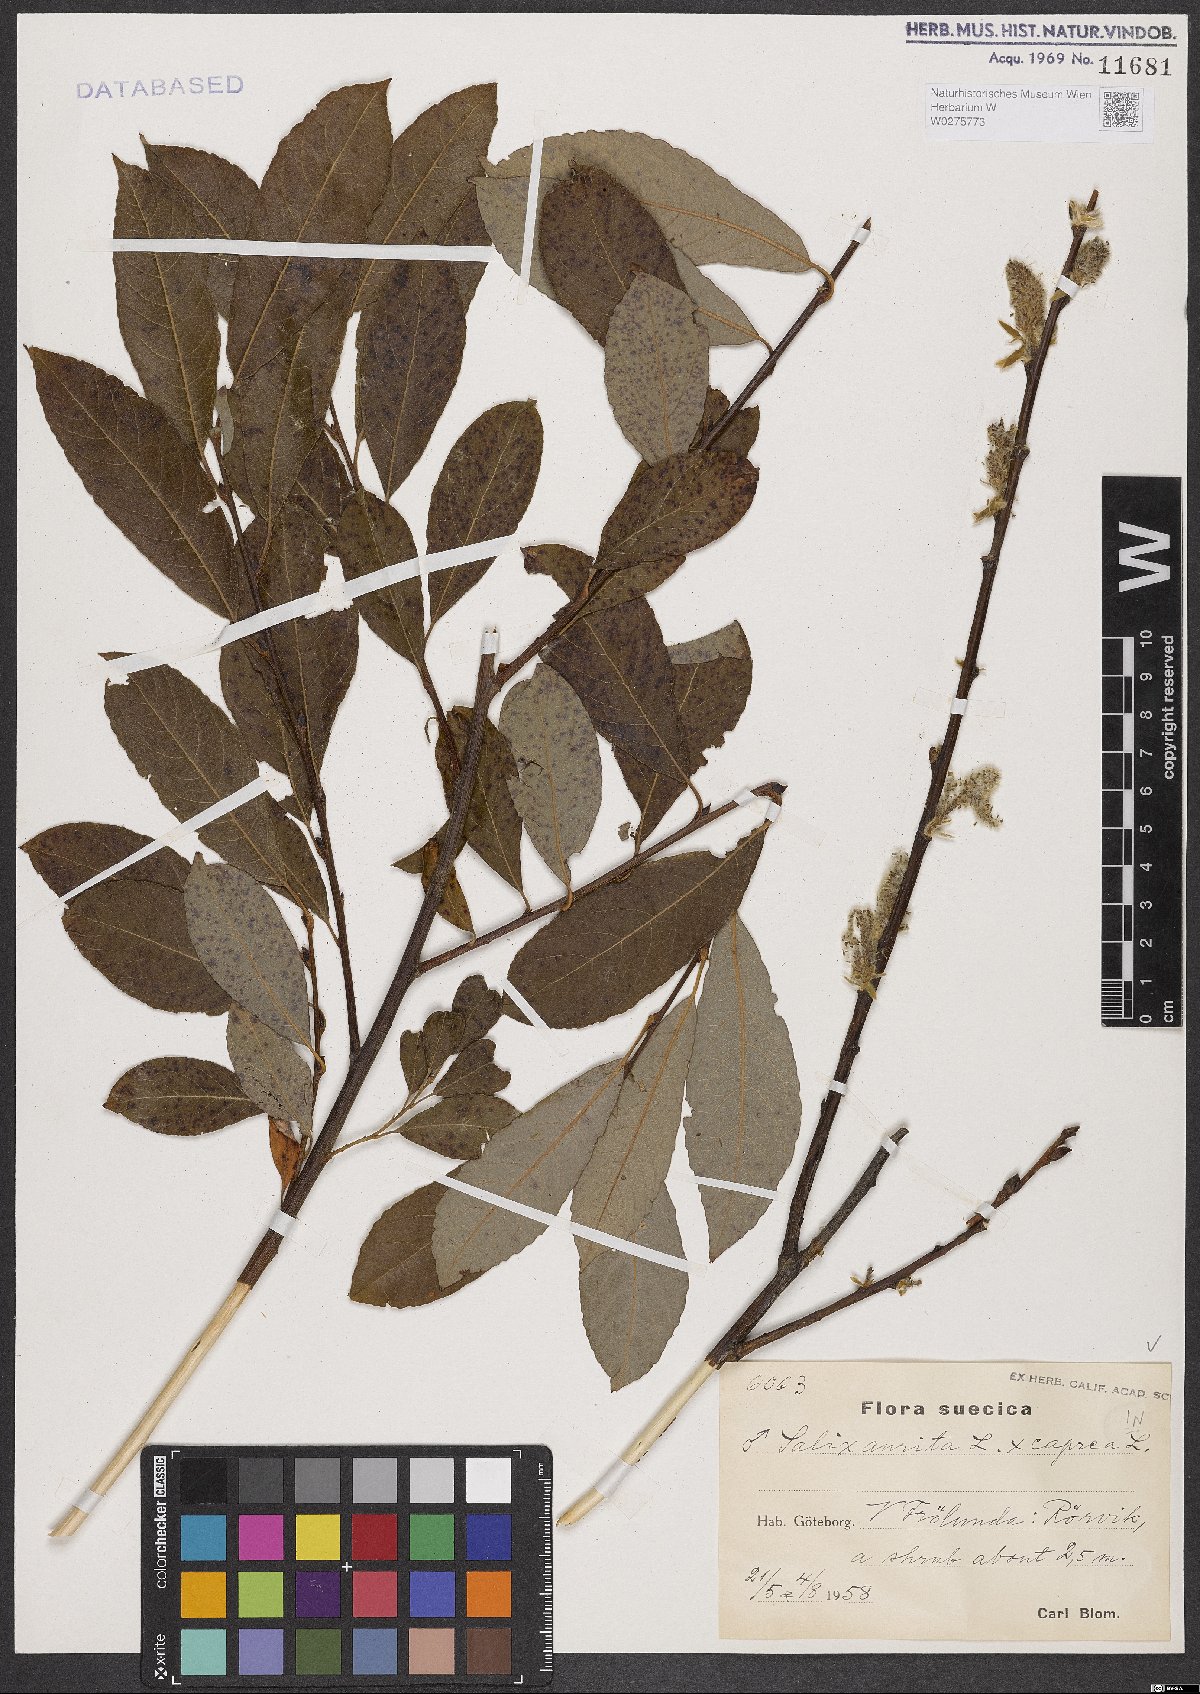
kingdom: Plantae
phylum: Tracheophyta
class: Magnoliopsida
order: Malpighiales
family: Salicaceae
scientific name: Salicaceae
